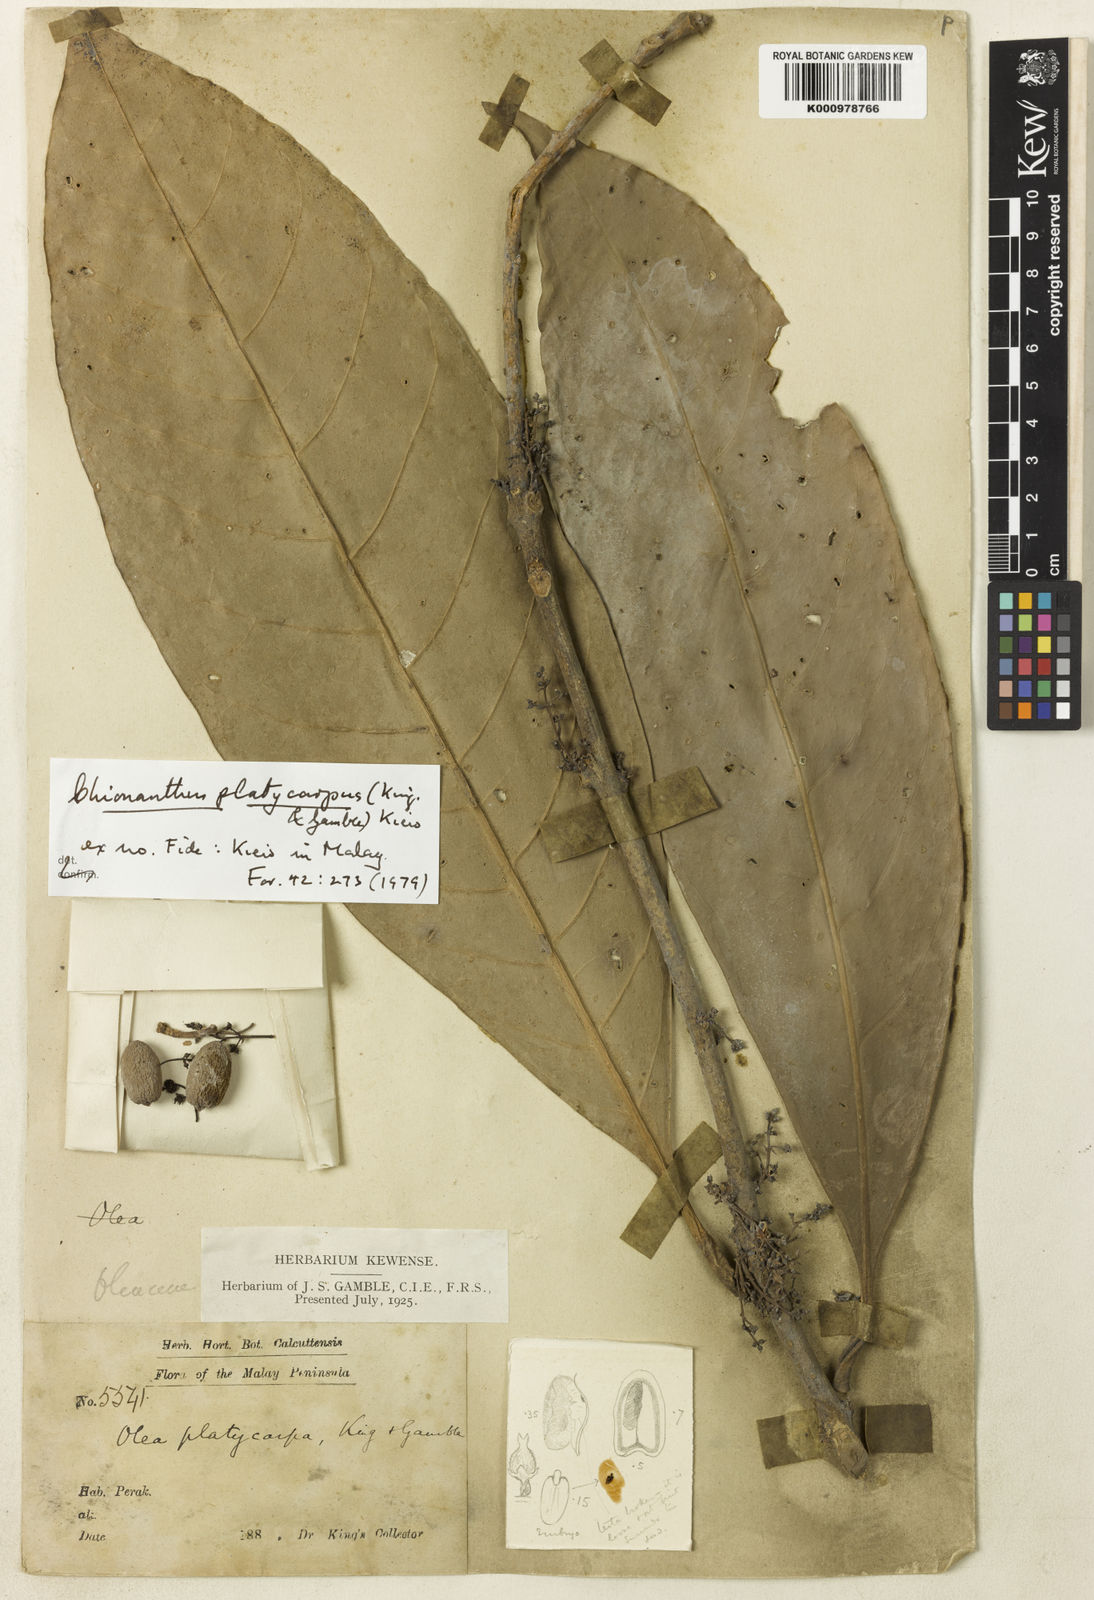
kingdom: Plantae
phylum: Tracheophyta
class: Magnoliopsida
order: Lamiales
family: Oleaceae
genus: Chionanthus
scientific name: Chionanthus callophyllus
